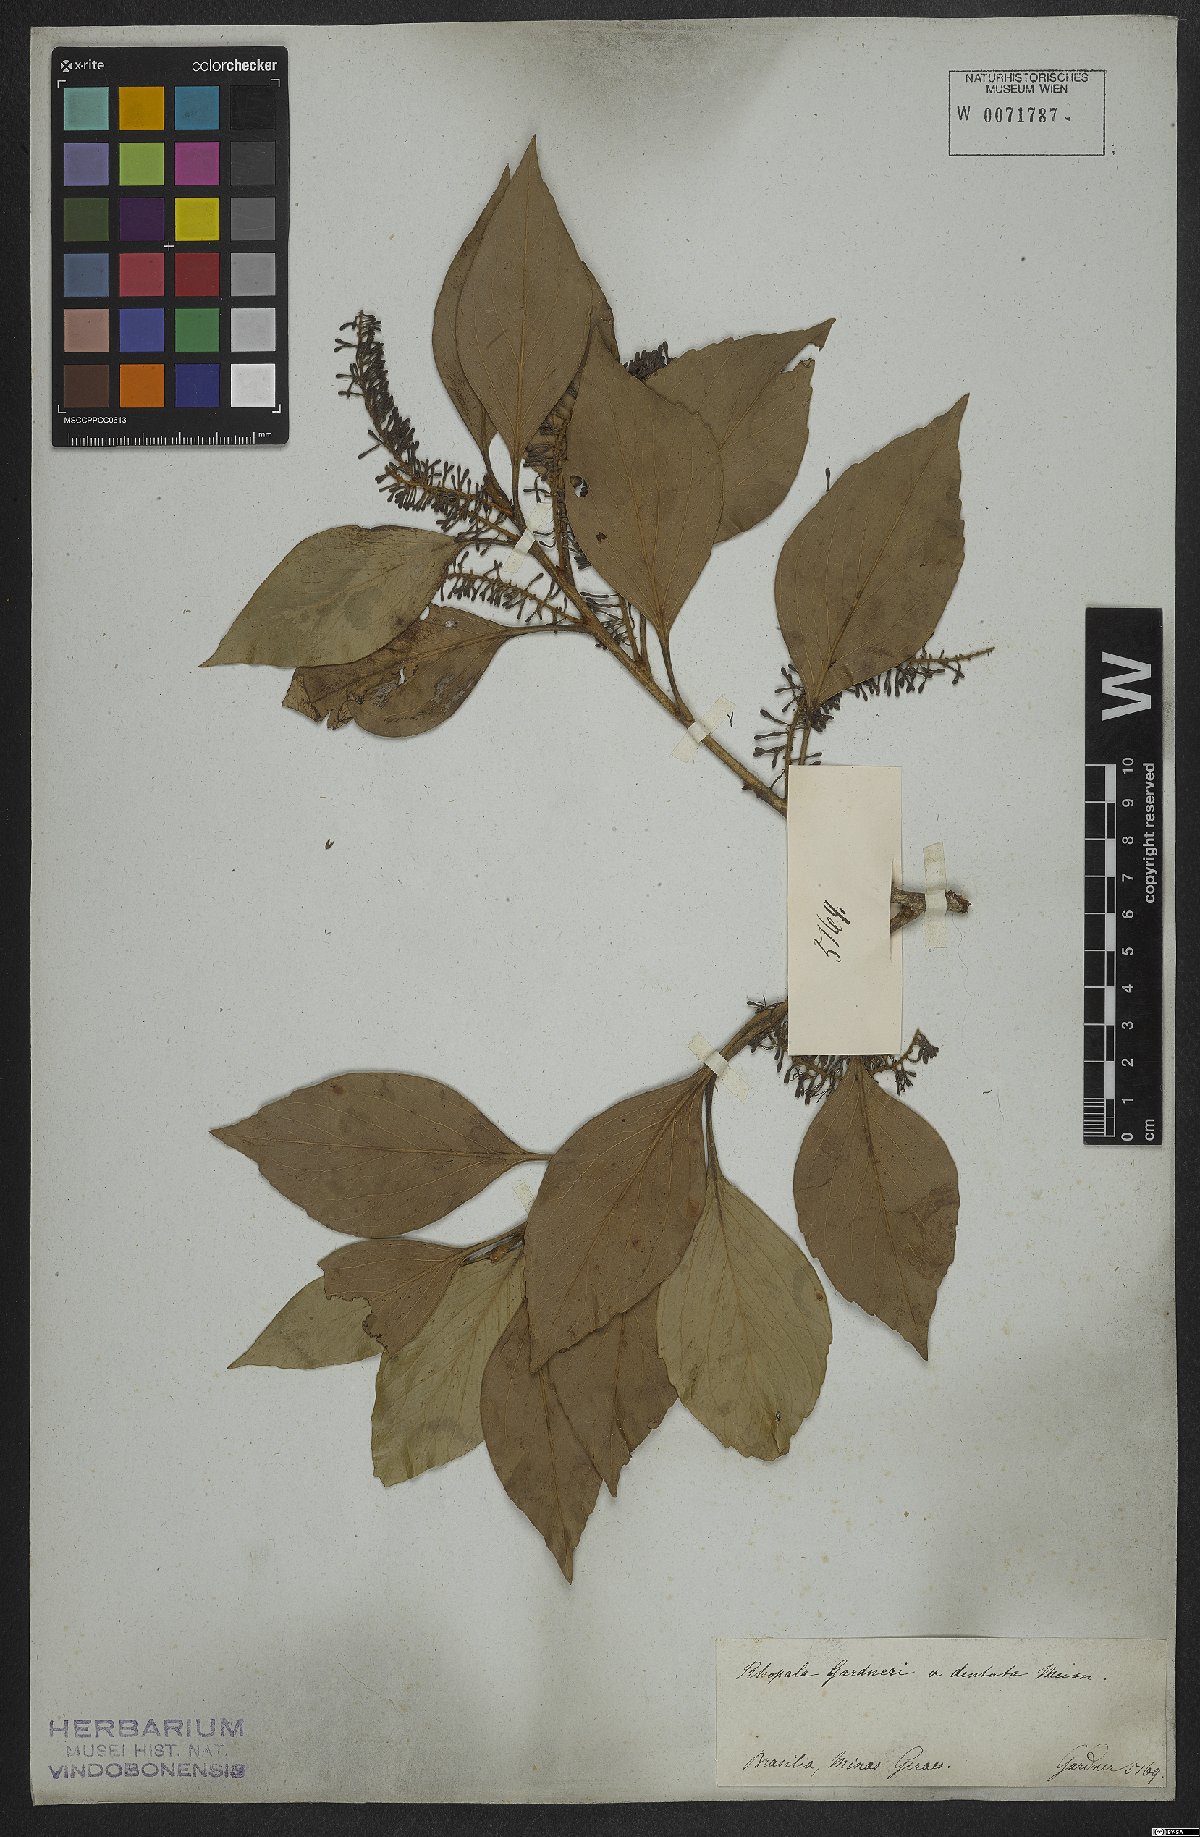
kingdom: Plantae
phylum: Tracheophyta
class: Magnoliopsida
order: Proteales
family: Proteaceae
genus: Roupala
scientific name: Roupala montana
